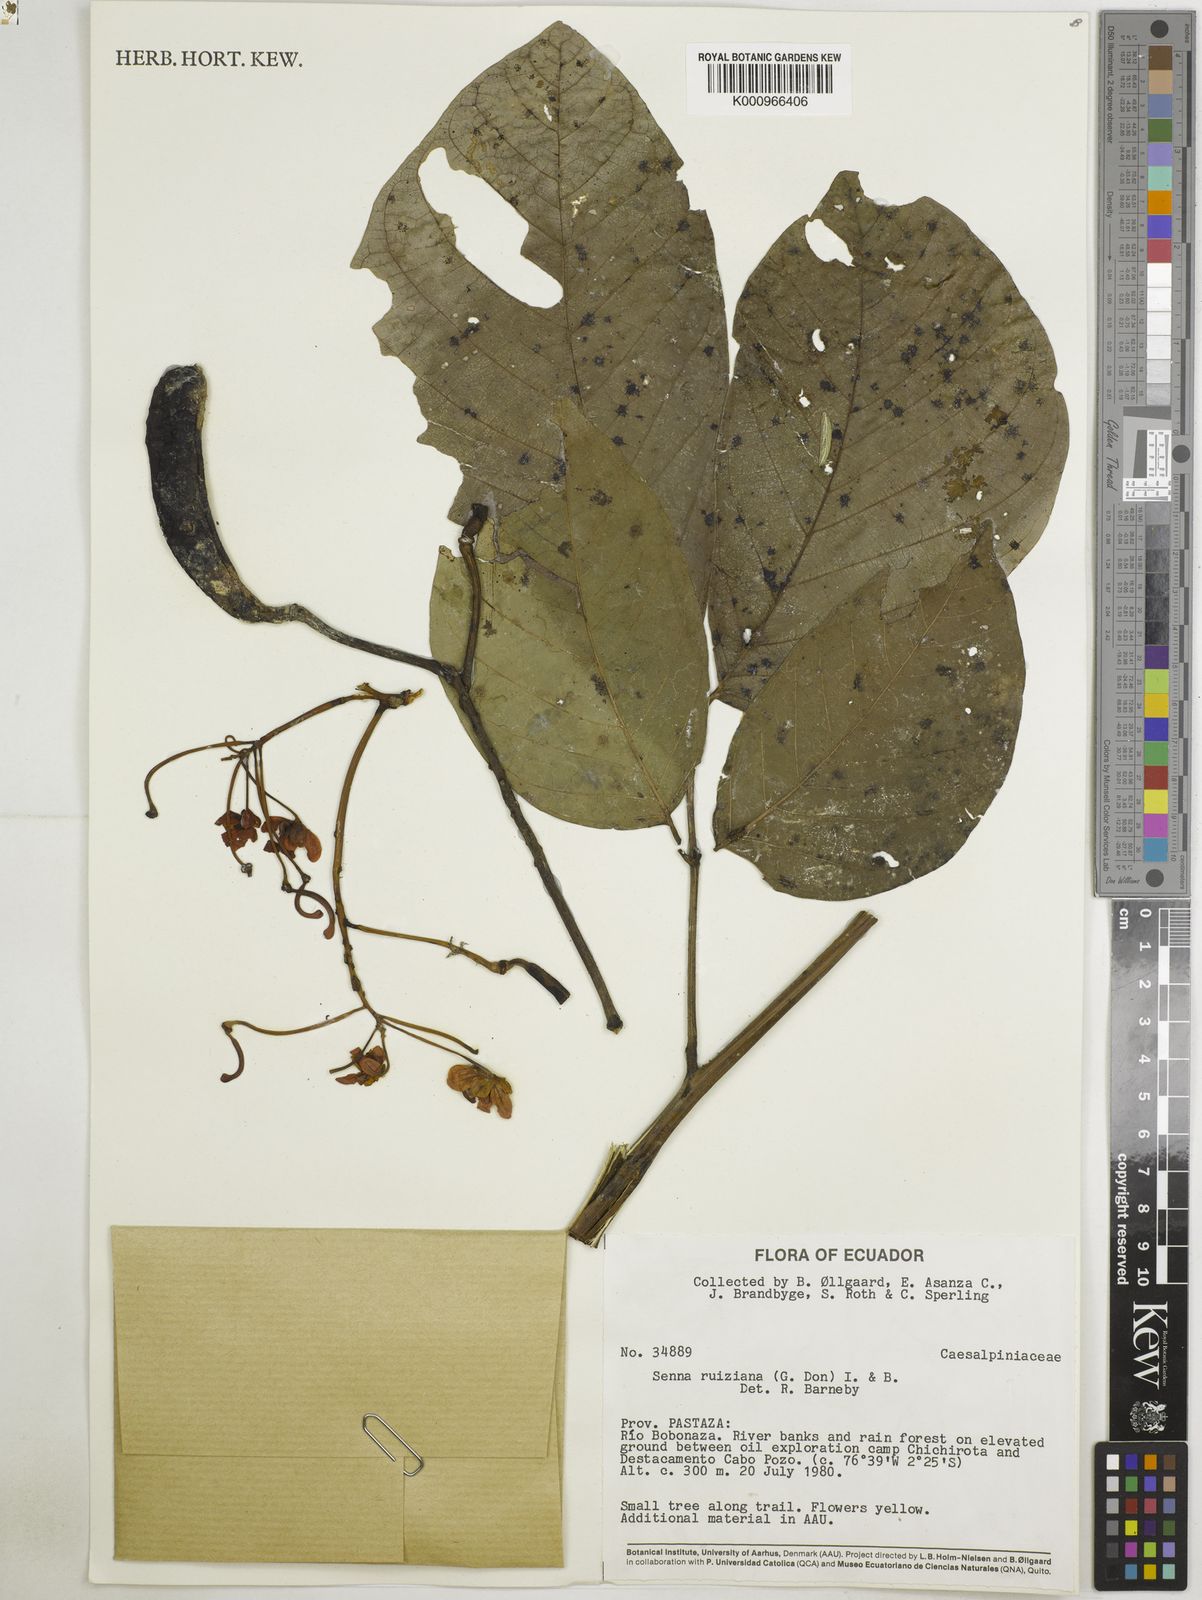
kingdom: Plantae
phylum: Tracheophyta
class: Magnoliopsida
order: Fabales
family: Fabaceae
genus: Senna
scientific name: Senna ruiziana
